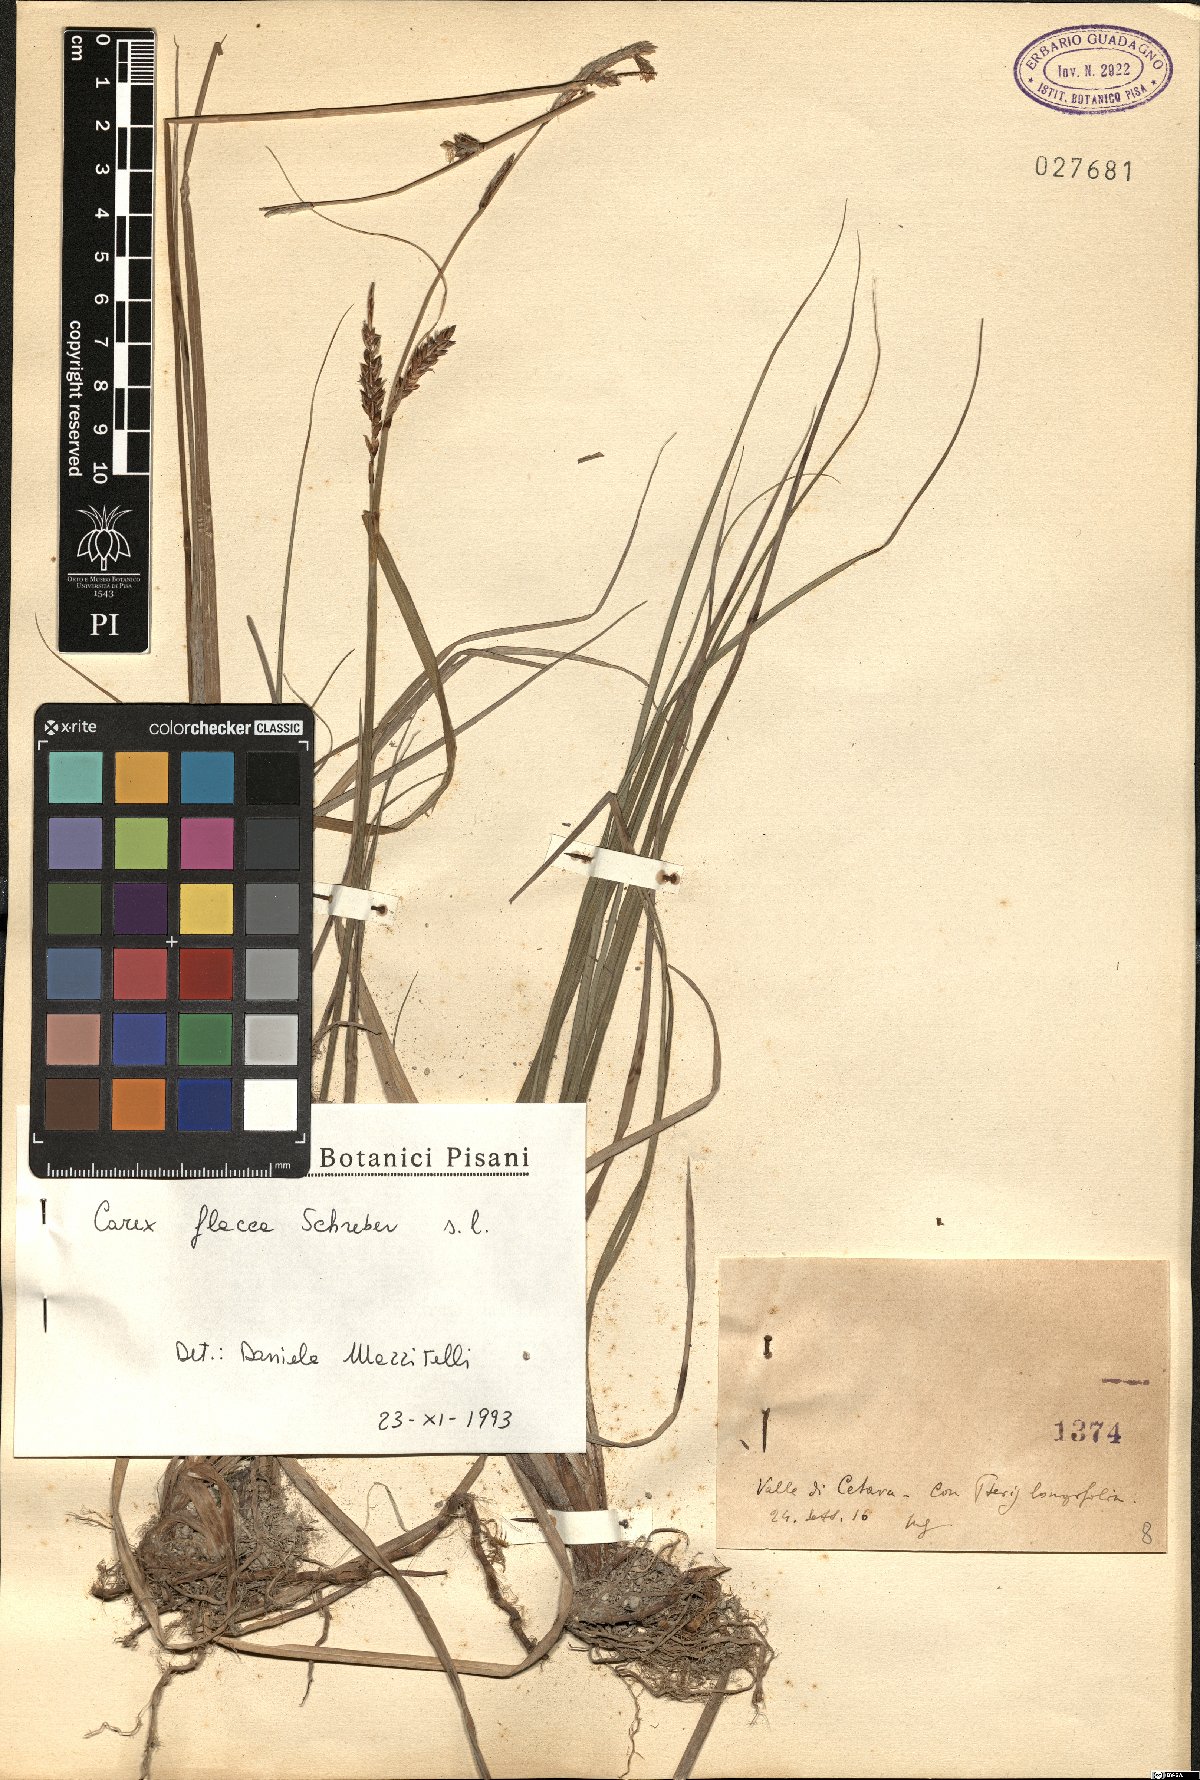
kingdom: Plantae
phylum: Tracheophyta
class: Liliopsida
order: Poales
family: Cyperaceae
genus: Carex
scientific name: Carex flacca
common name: Glaucous sedge
